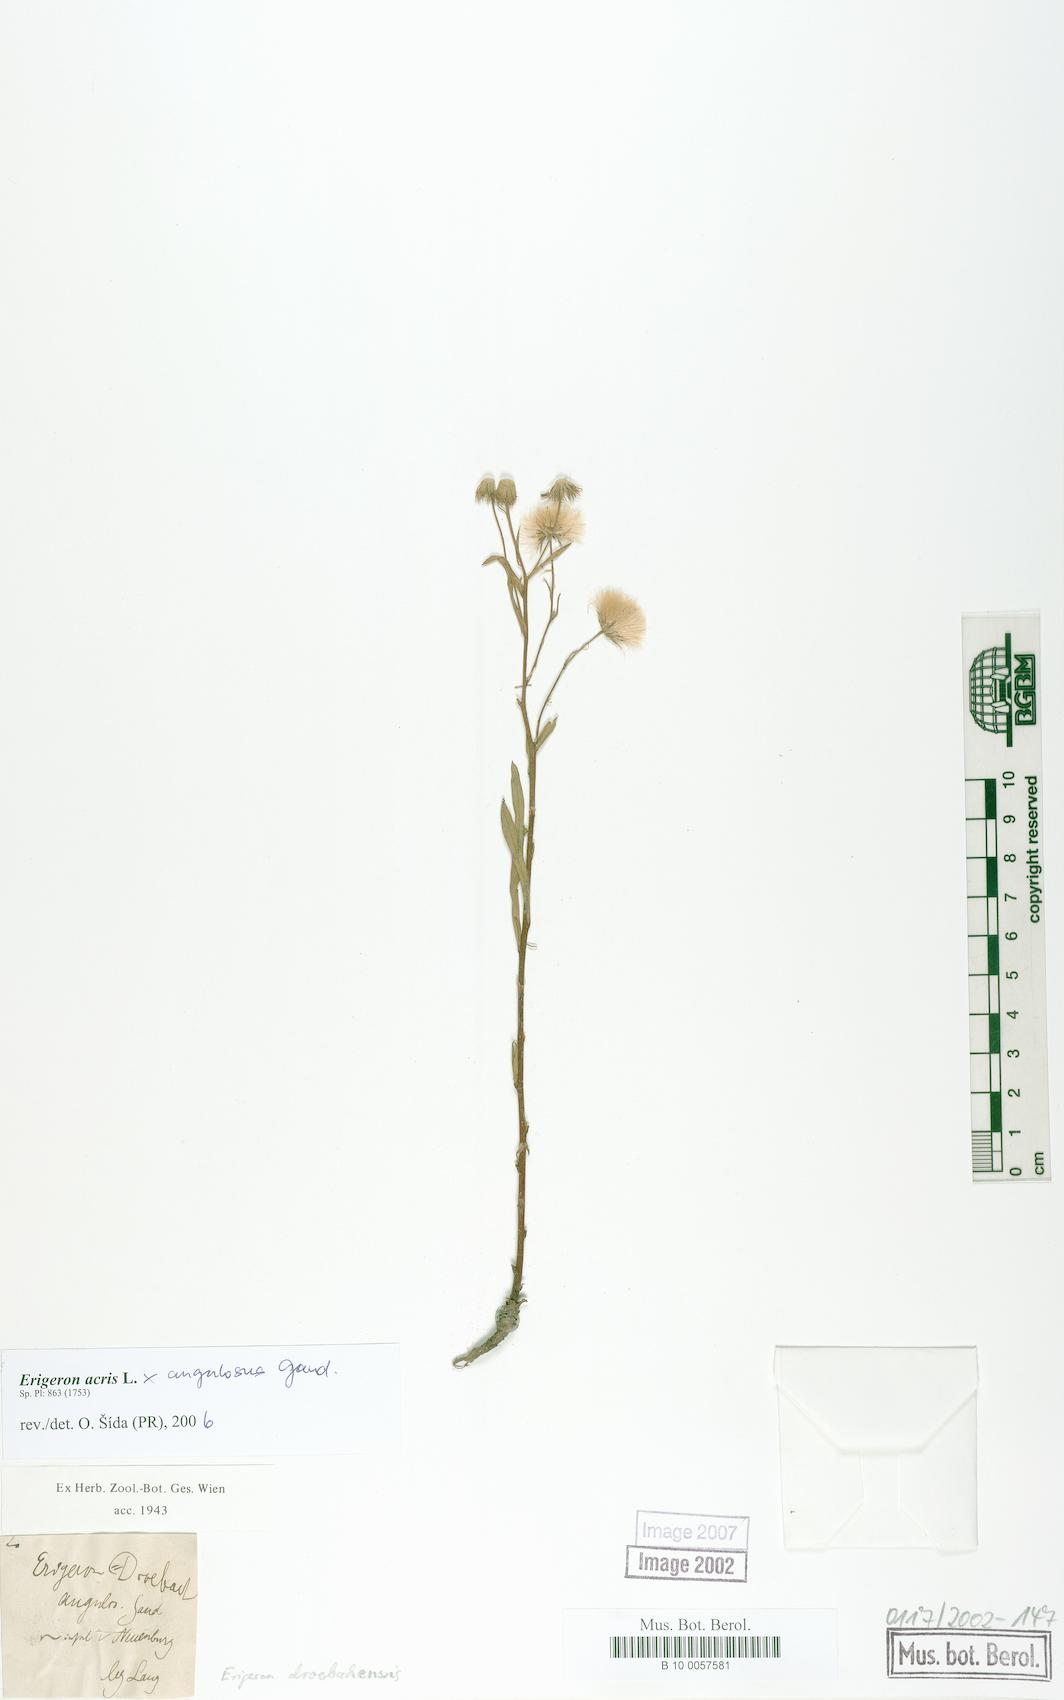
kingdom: Plantae
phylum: Tracheophyta
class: Magnoliopsida
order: Asterales
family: Asteraceae
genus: Erigeron
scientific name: Erigeron
